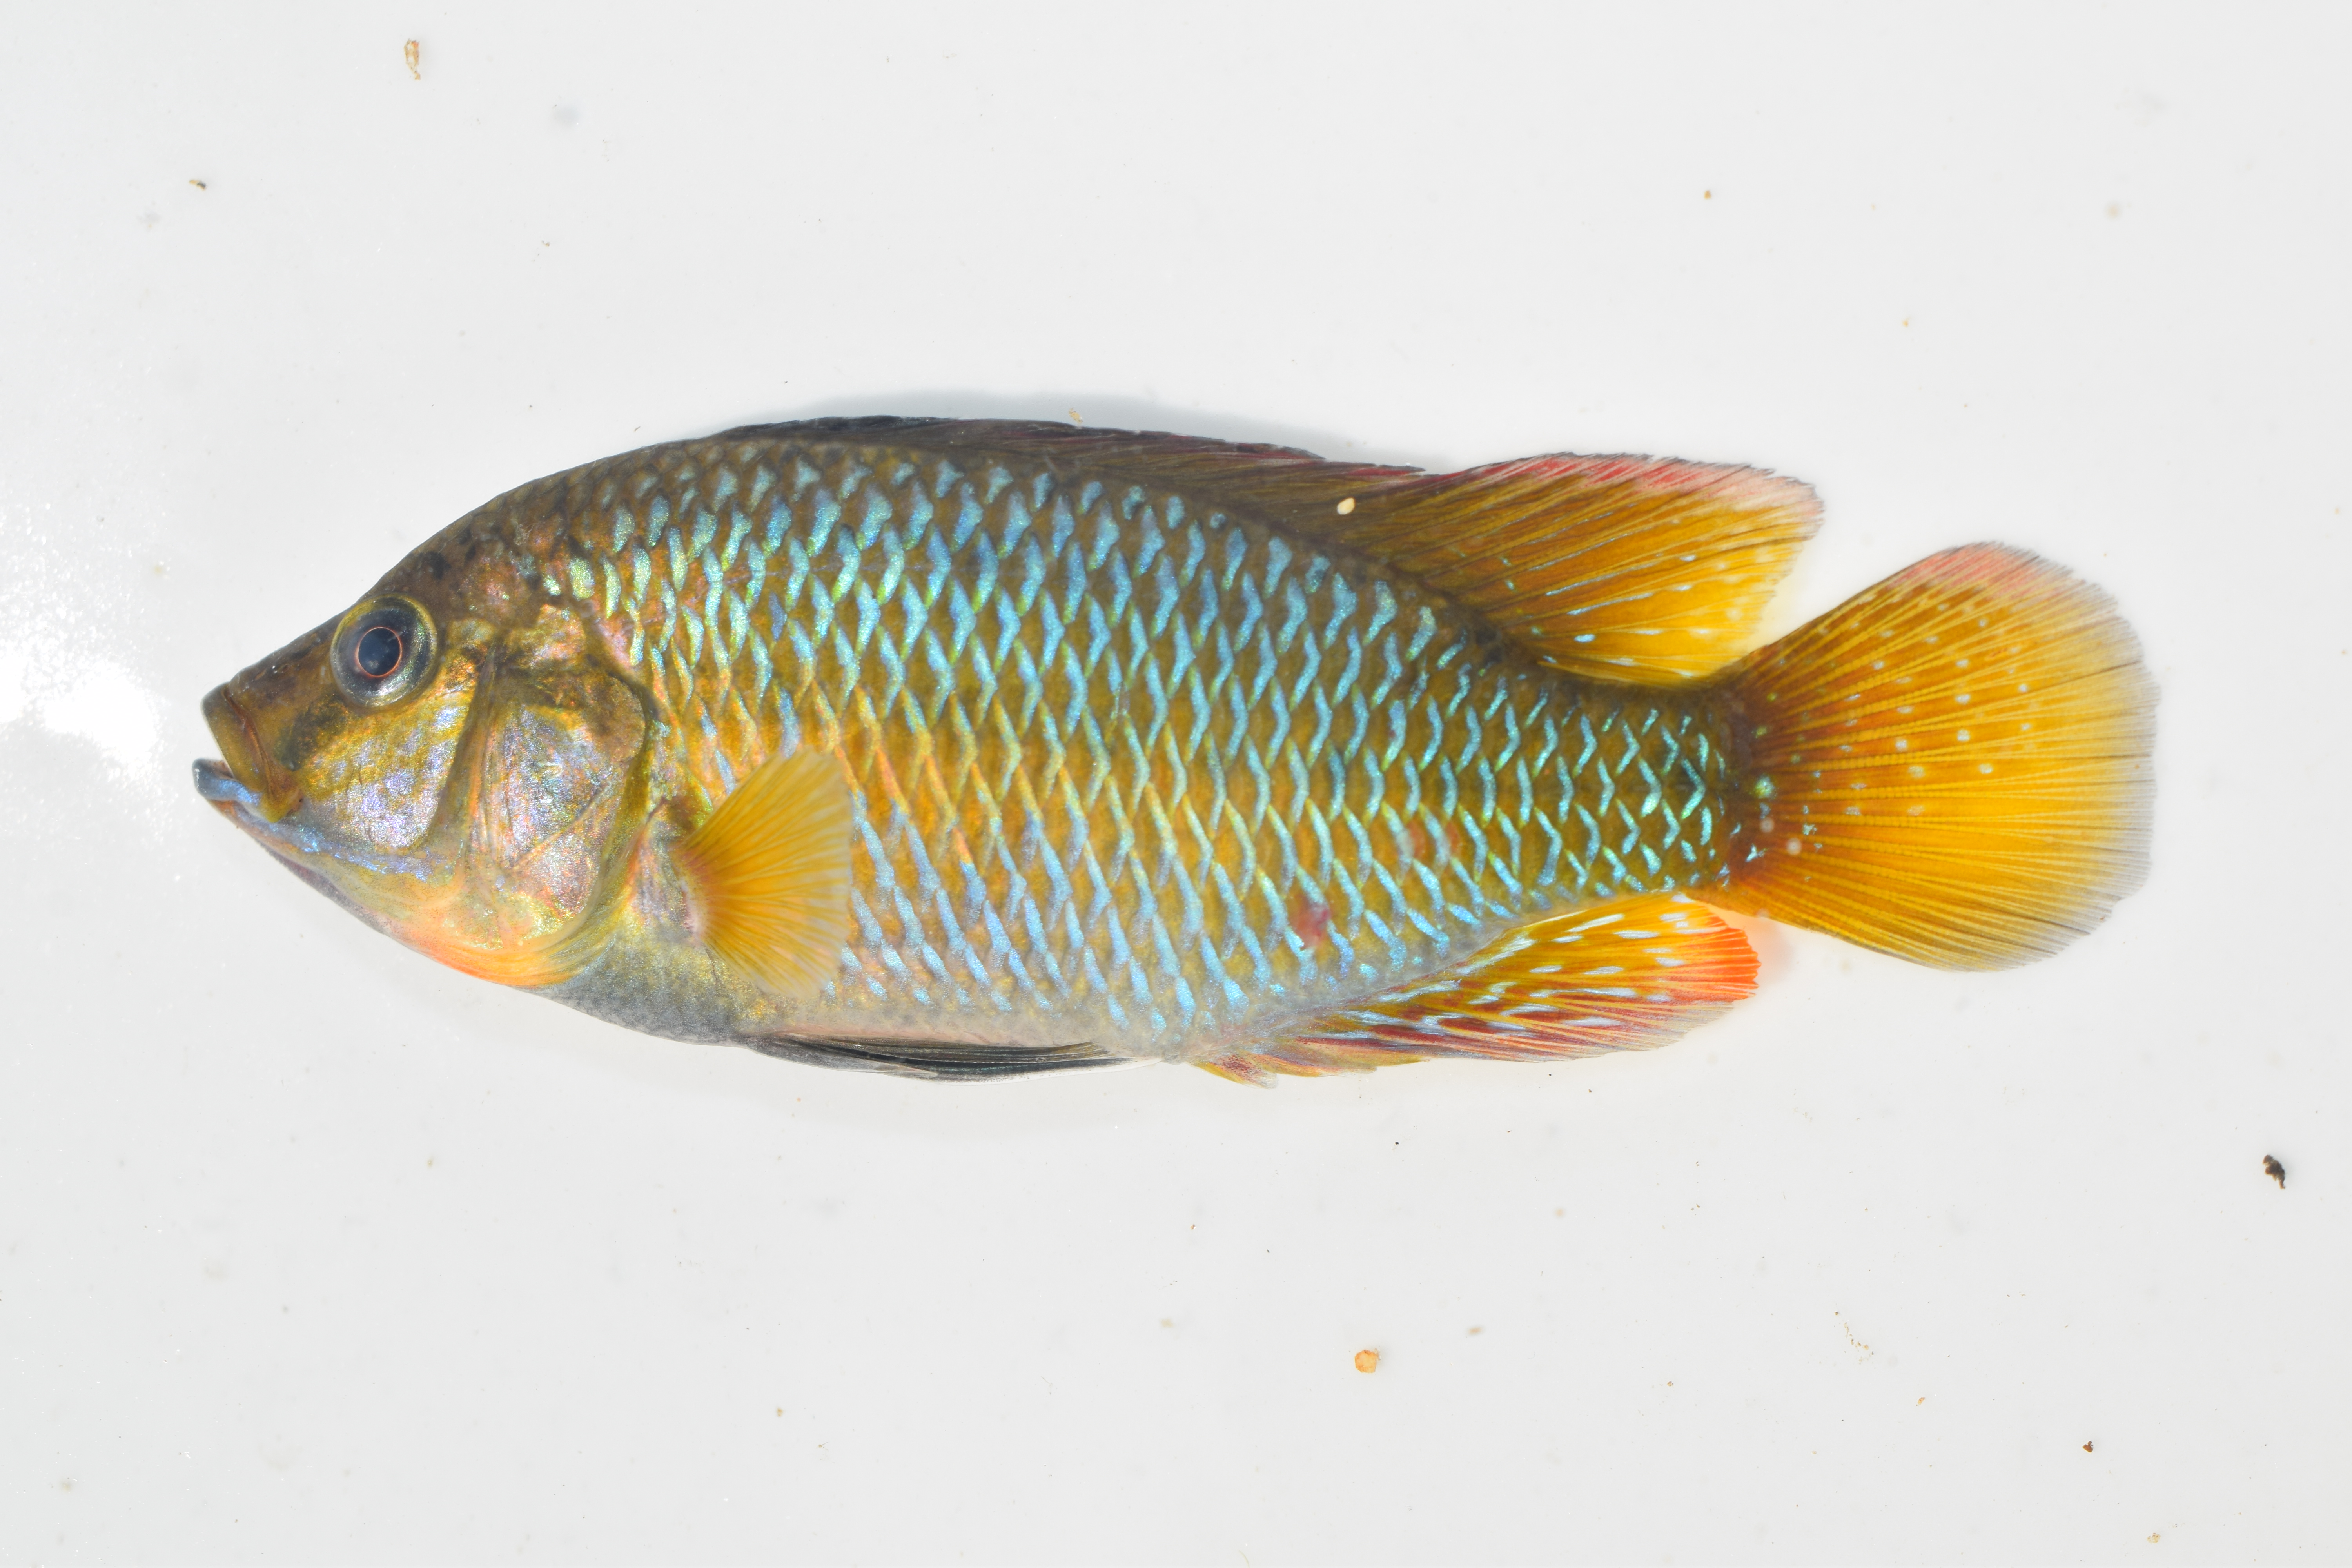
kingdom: Animalia
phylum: Chordata
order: Perciformes
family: Cichlidae
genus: Pseudocrenilabrus
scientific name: Pseudocrenilabrus philander
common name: Southern mouthbrooder
